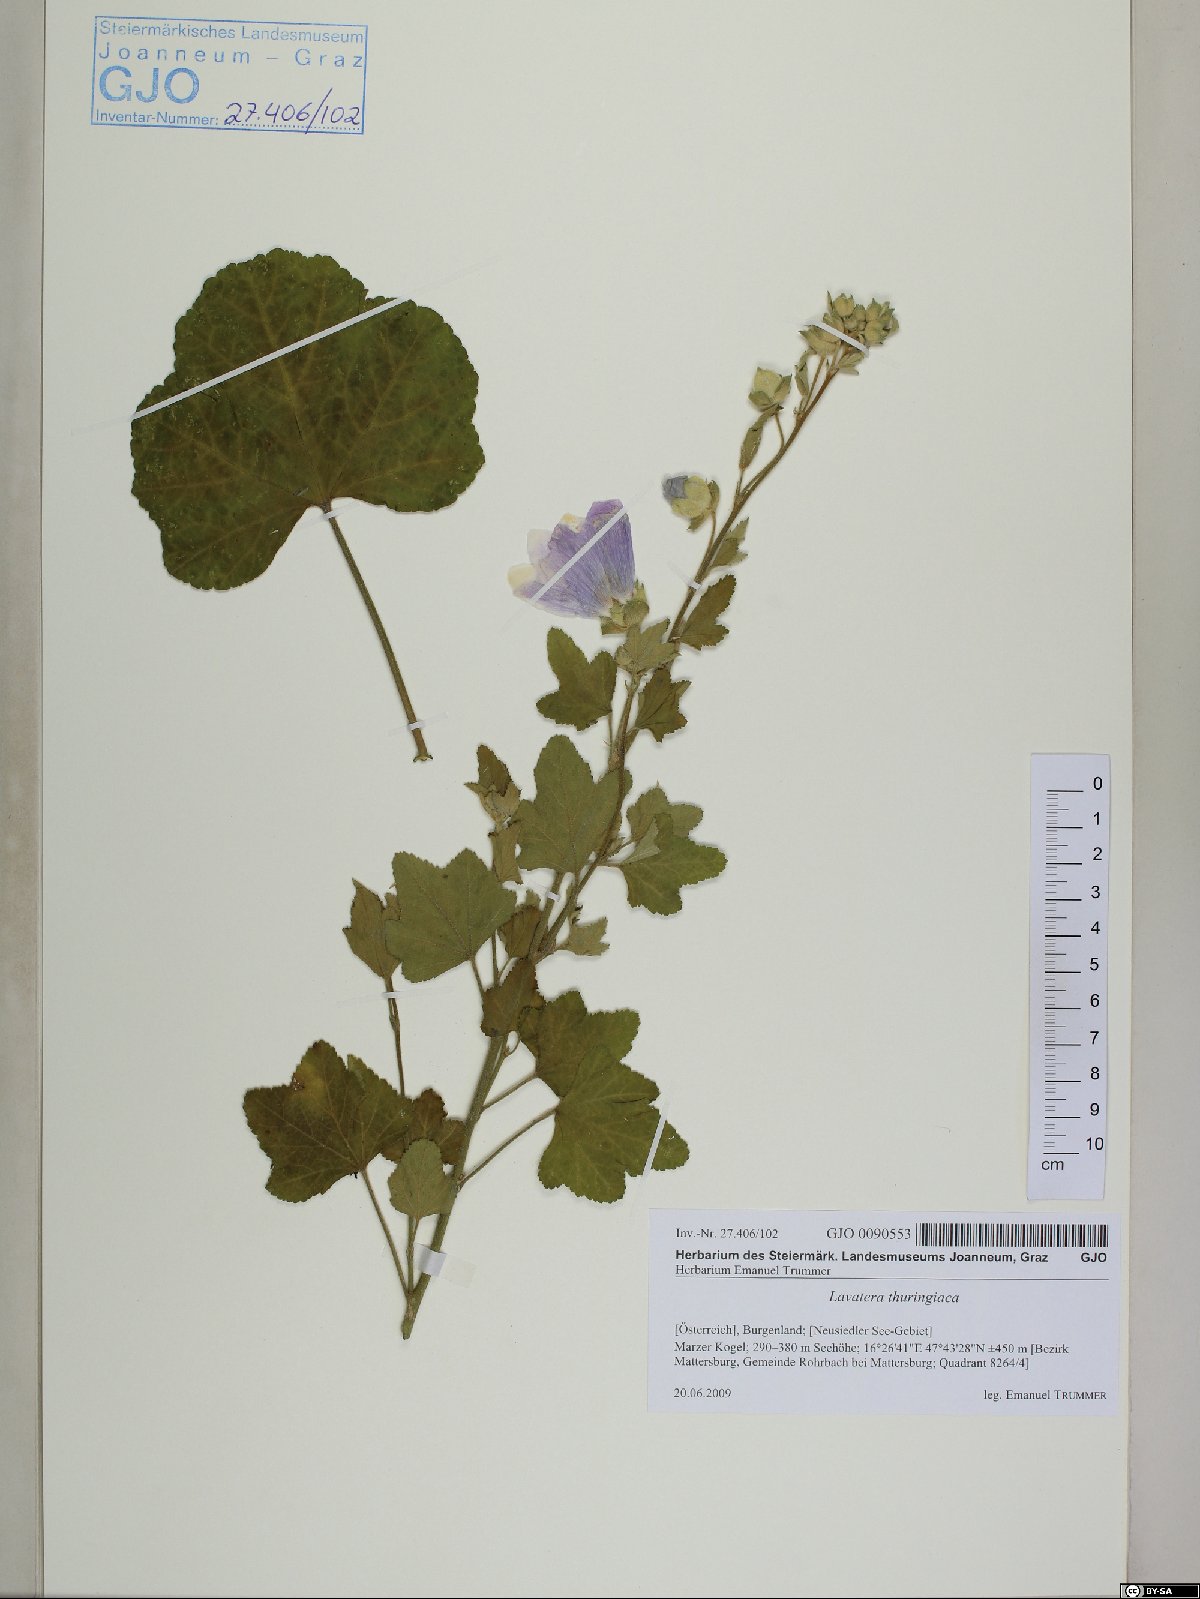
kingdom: Plantae
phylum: Tracheophyta
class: Magnoliopsida
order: Malvales
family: Malvaceae
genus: Malva
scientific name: Malva thuringiaca
